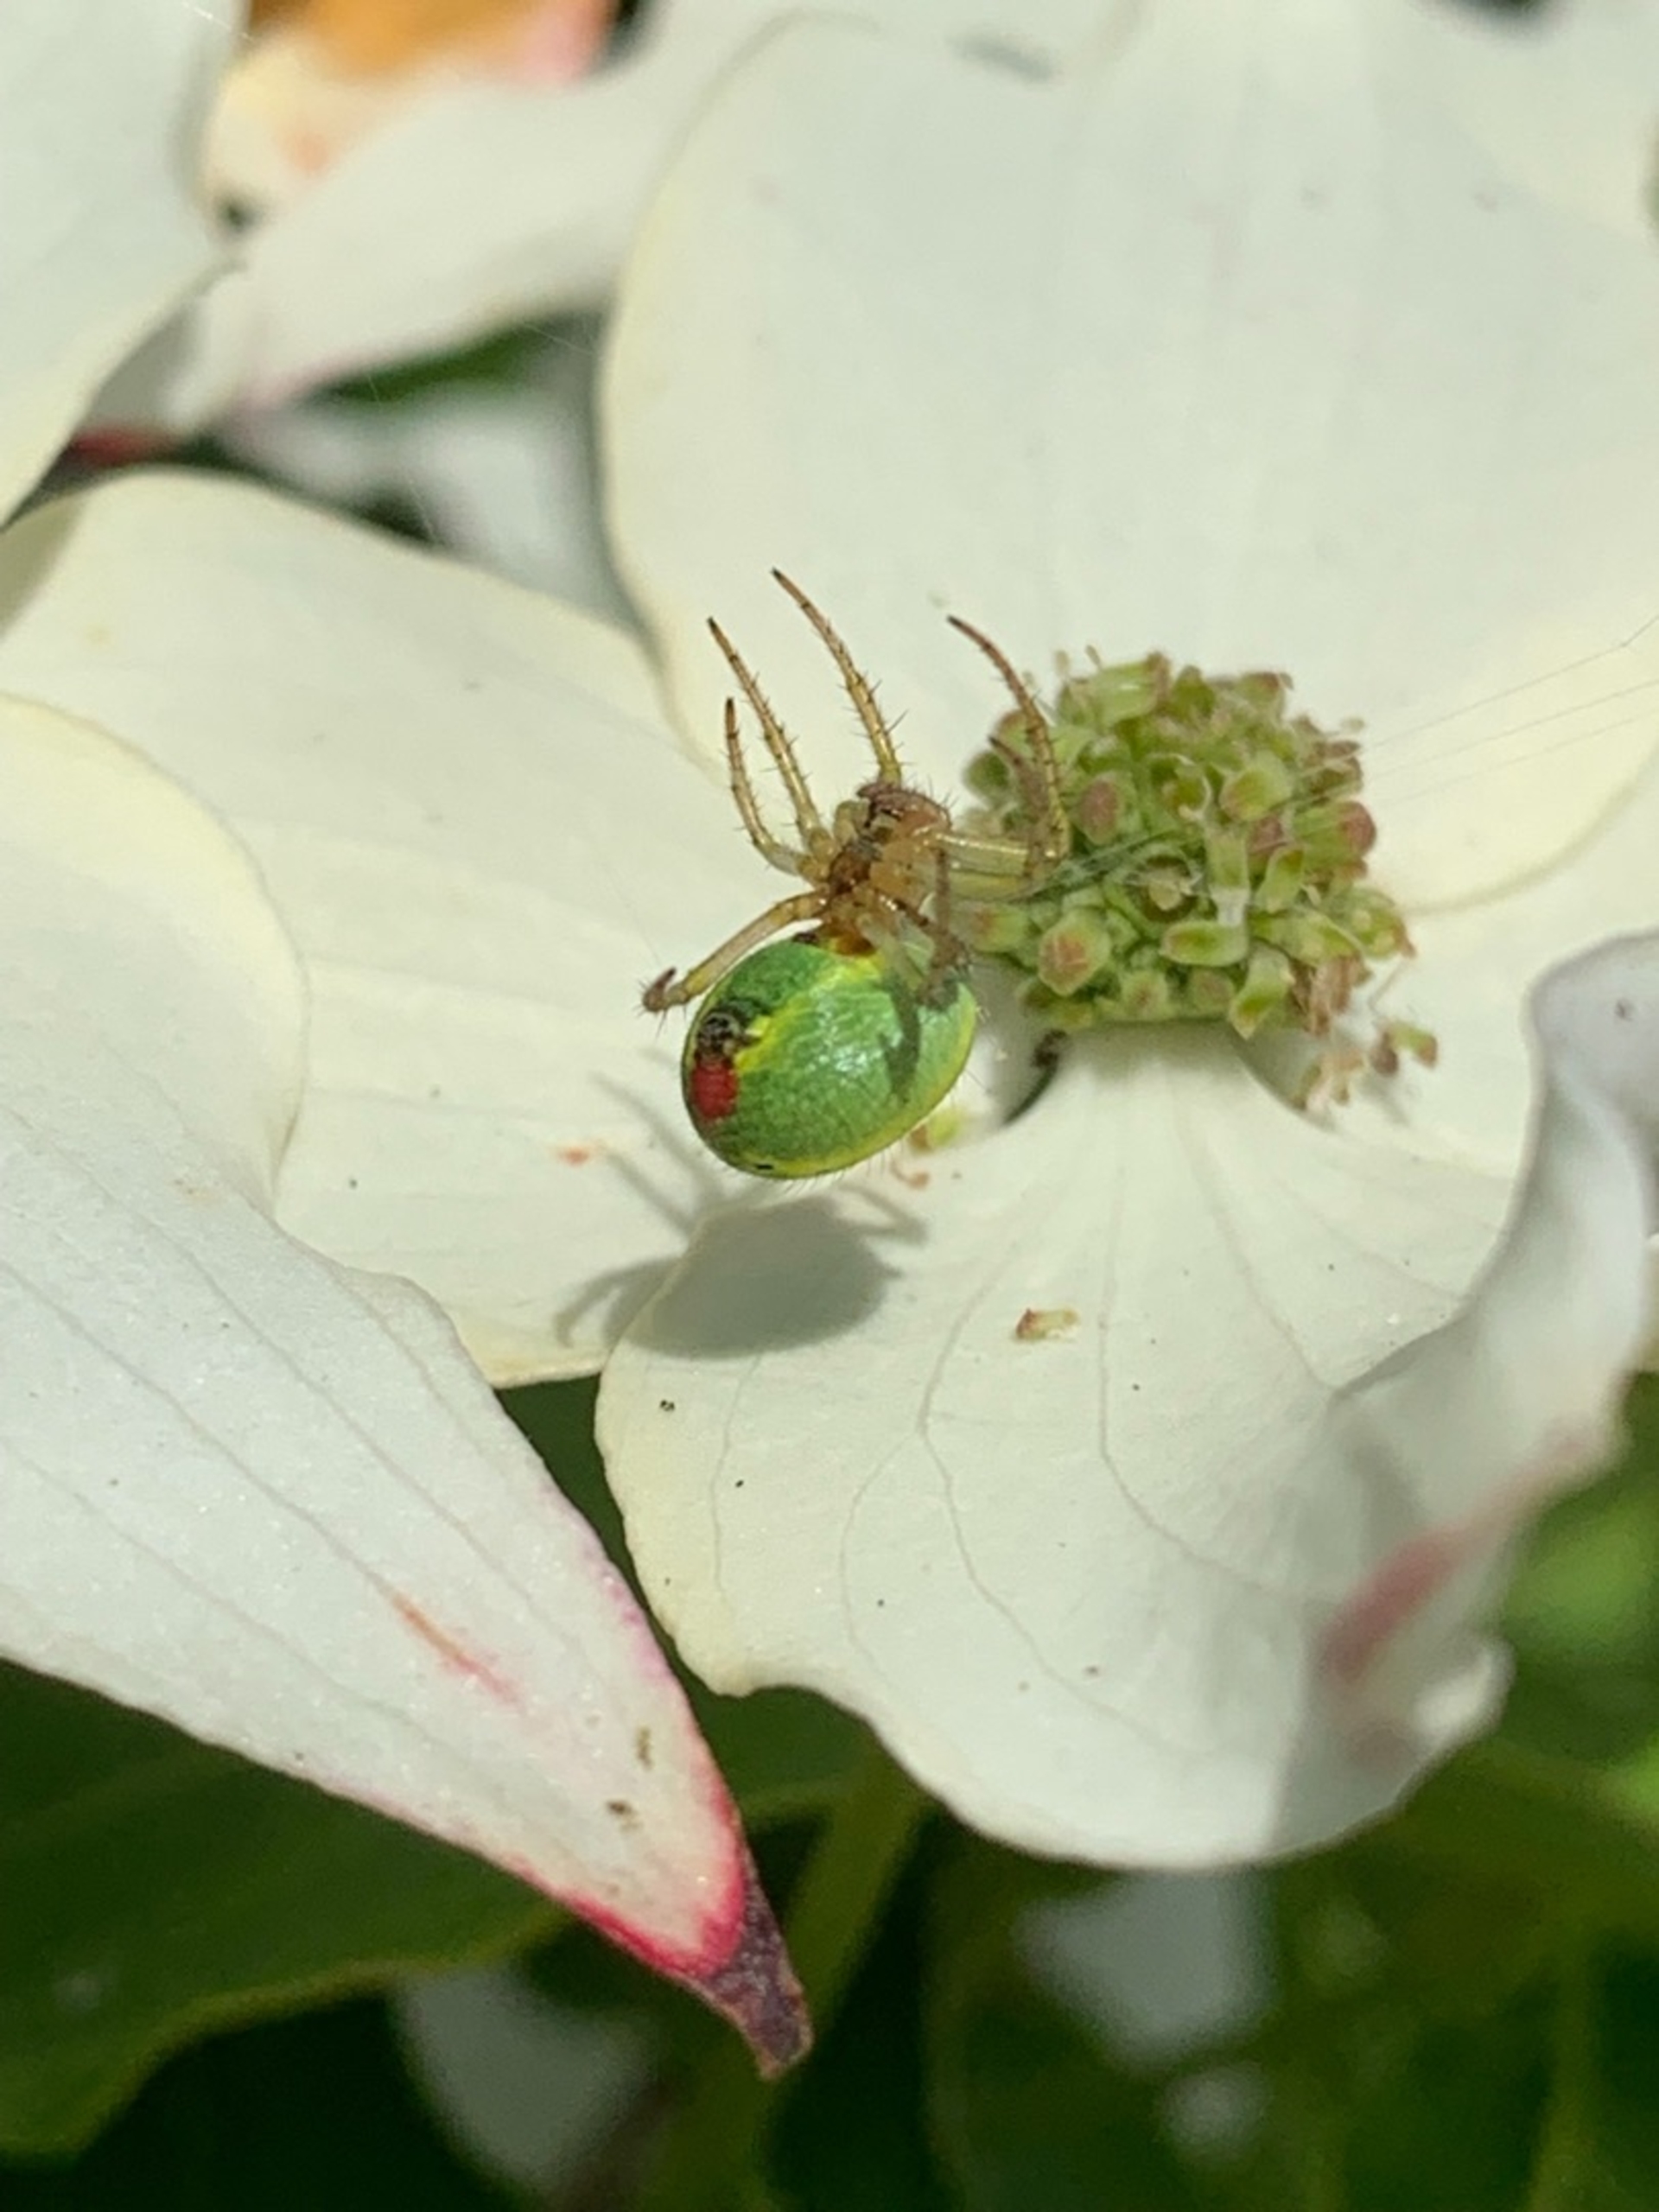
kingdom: Animalia
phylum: Arthropoda
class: Arachnida
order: Araneae
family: Araneidae
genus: Araniella
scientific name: Araniella
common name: Agurkeedderkopslægten
